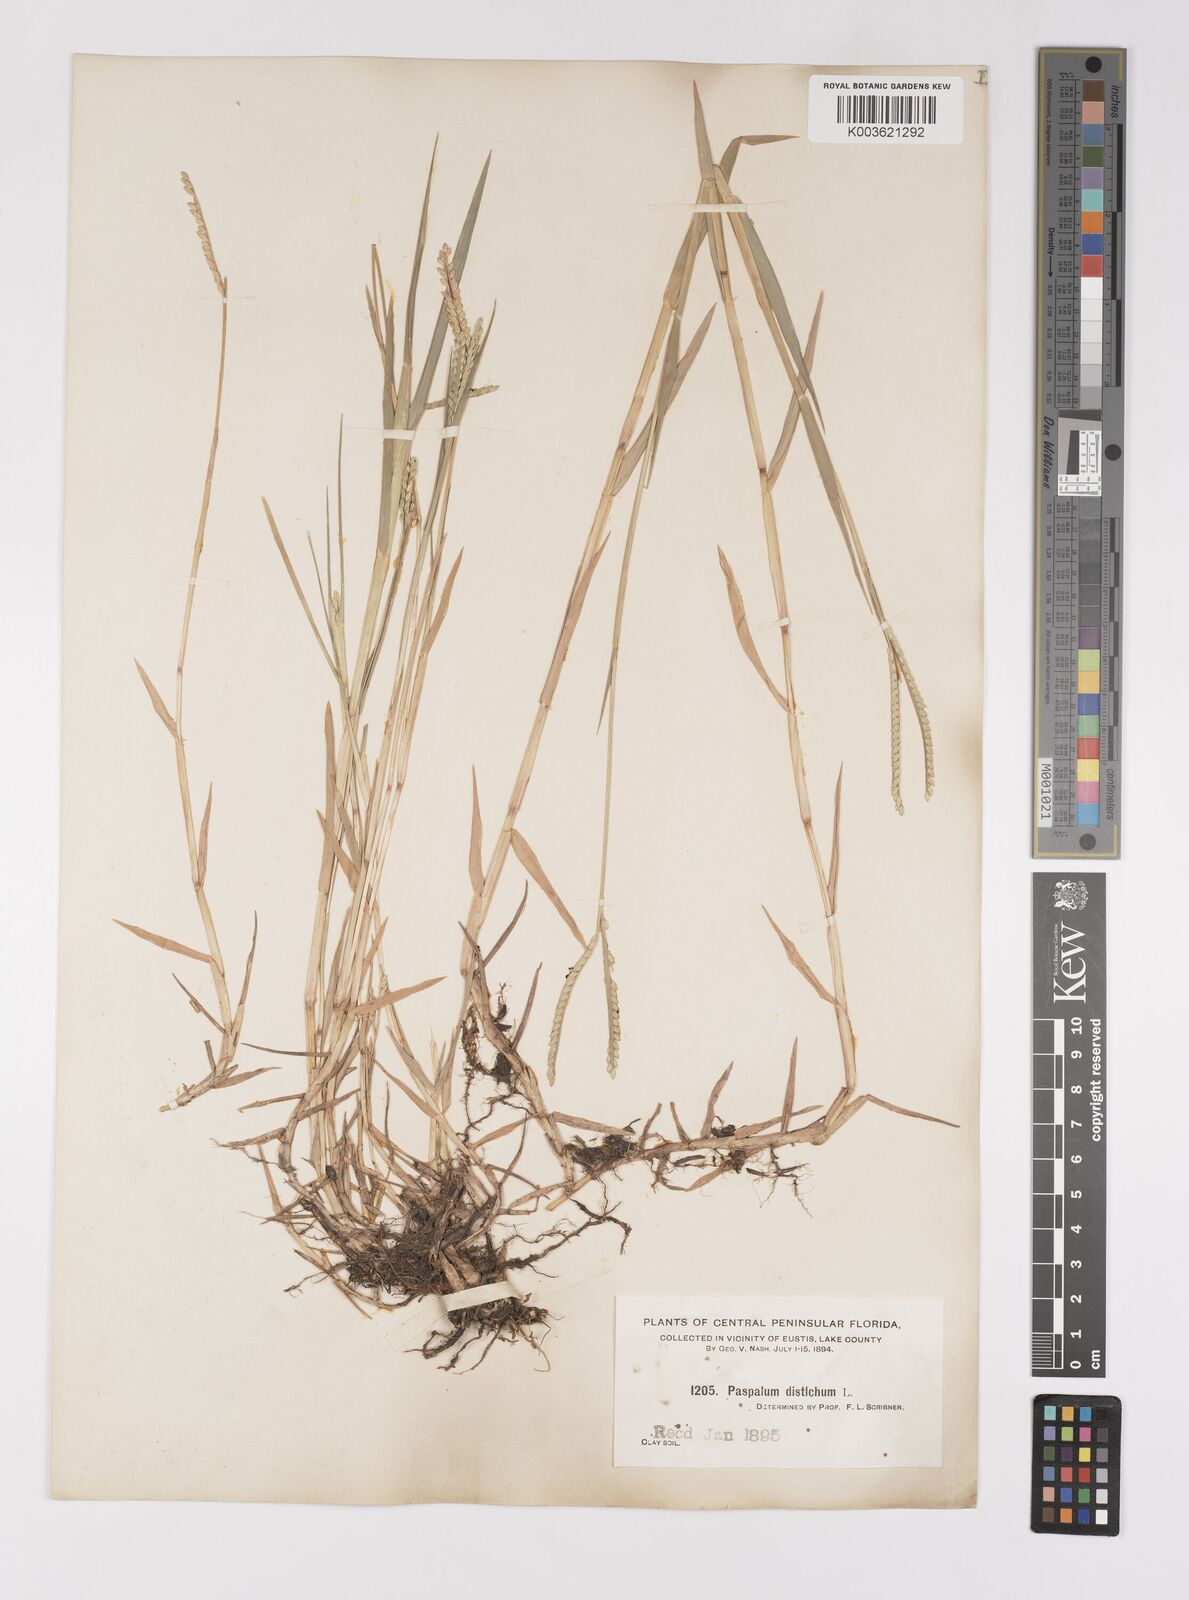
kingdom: Plantae
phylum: Tracheophyta
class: Liliopsida
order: Poales
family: Poaceae
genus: Paspalum
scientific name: Paspalum distichum
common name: Knotgrass
